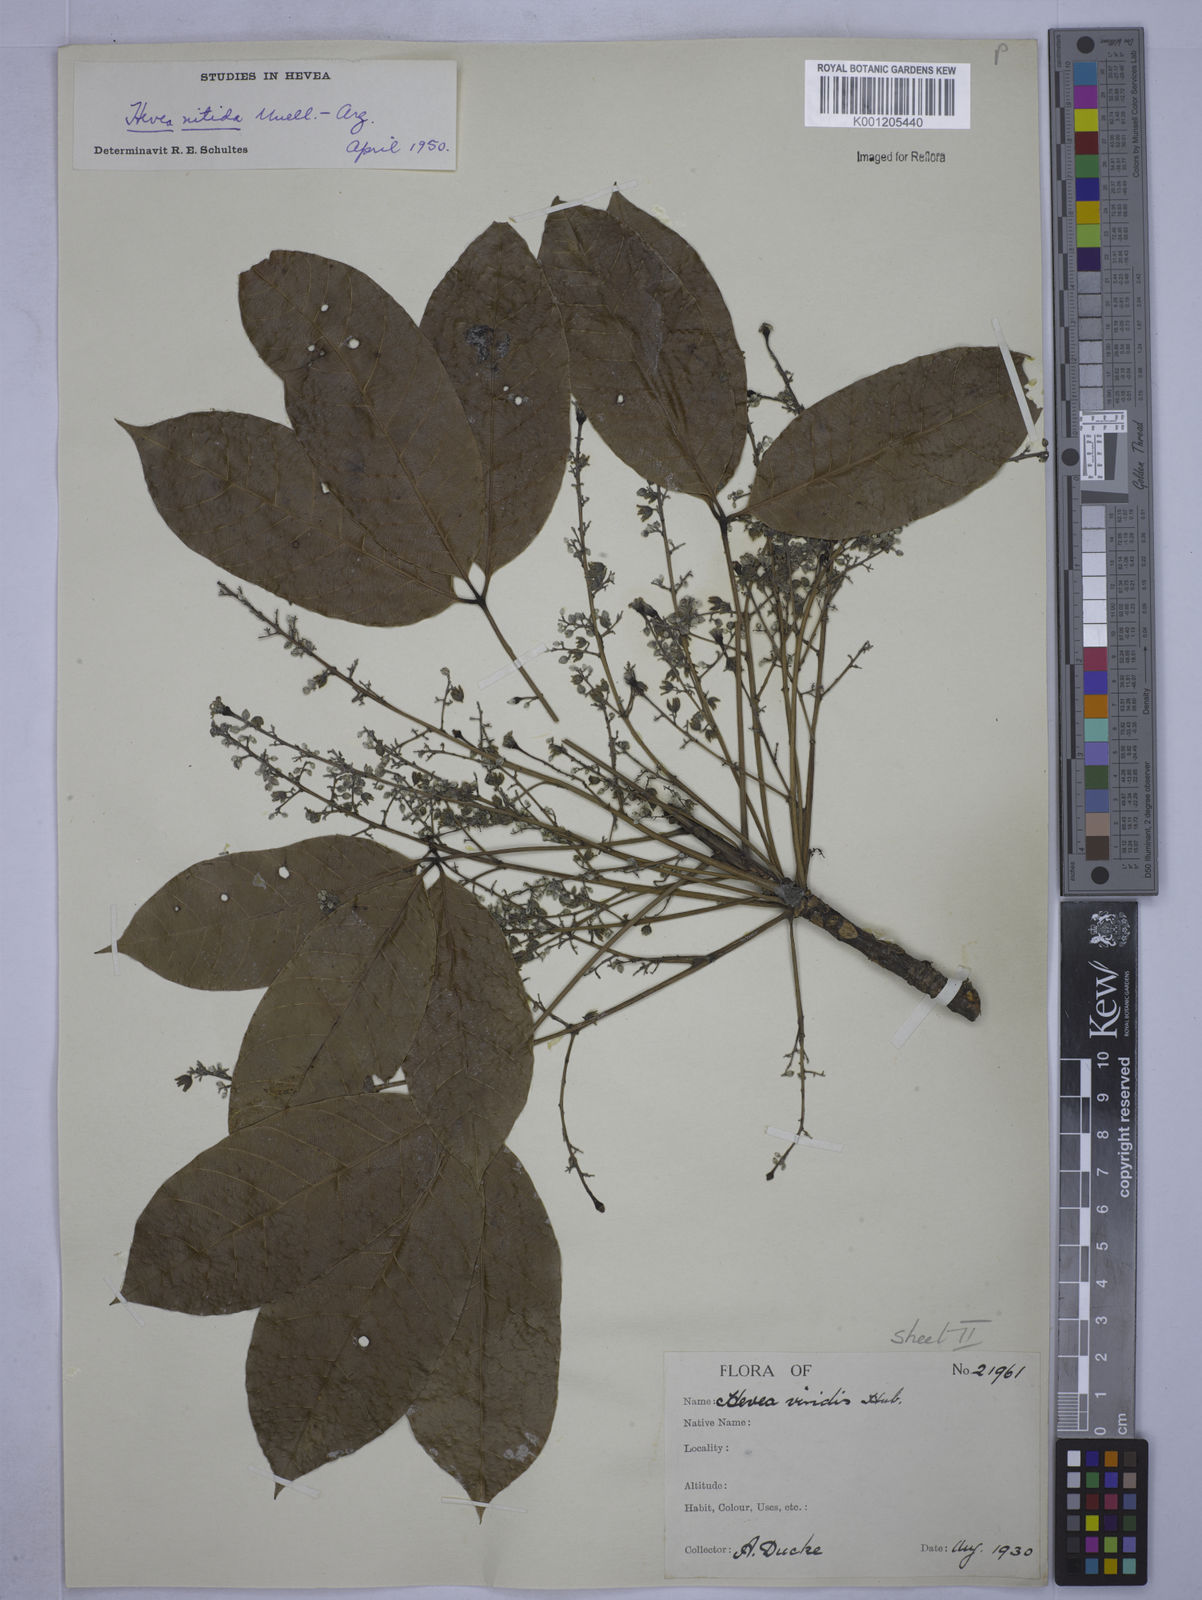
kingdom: Plantae
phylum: Tracheophyta
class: Magnoliopsida
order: Malpighiales
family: Euphorbiaceae
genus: Hevea
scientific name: Hevea
